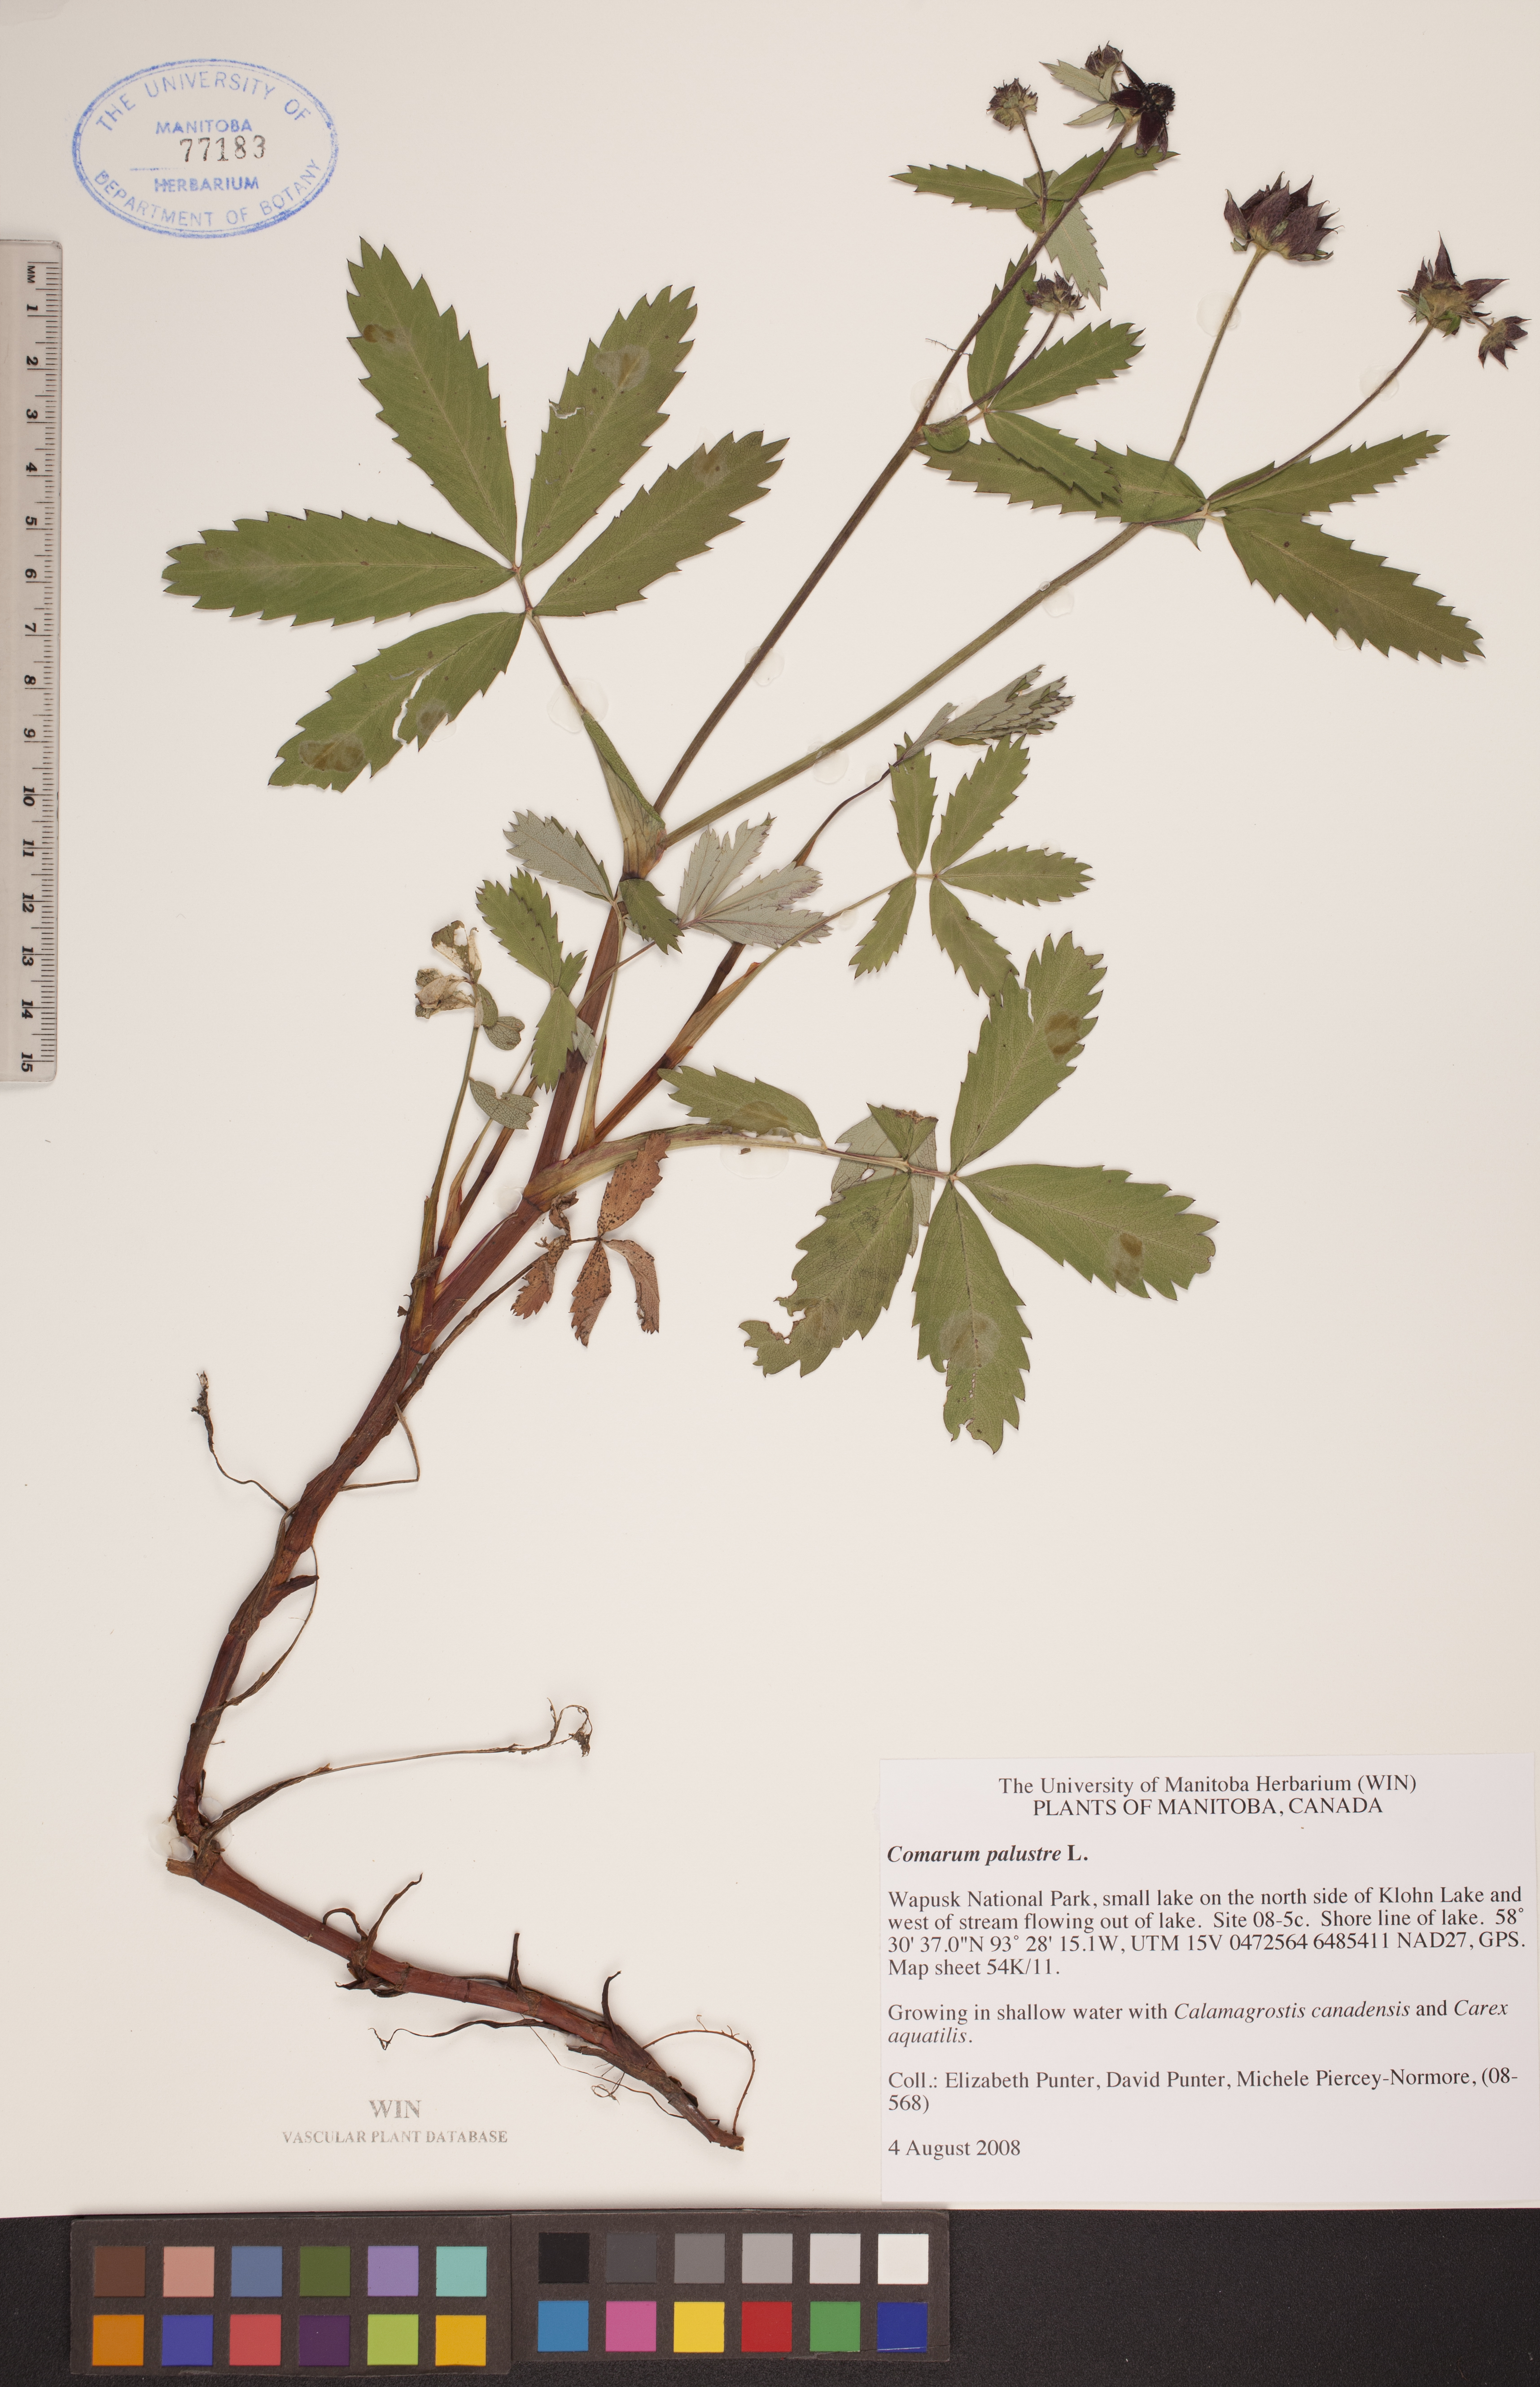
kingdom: Plantae
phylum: Tracheophyta
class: Magnoliopsida
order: Rosales
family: Rosaceae
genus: Comarum
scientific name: Comarum palustre
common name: Marsh cinquefoil
